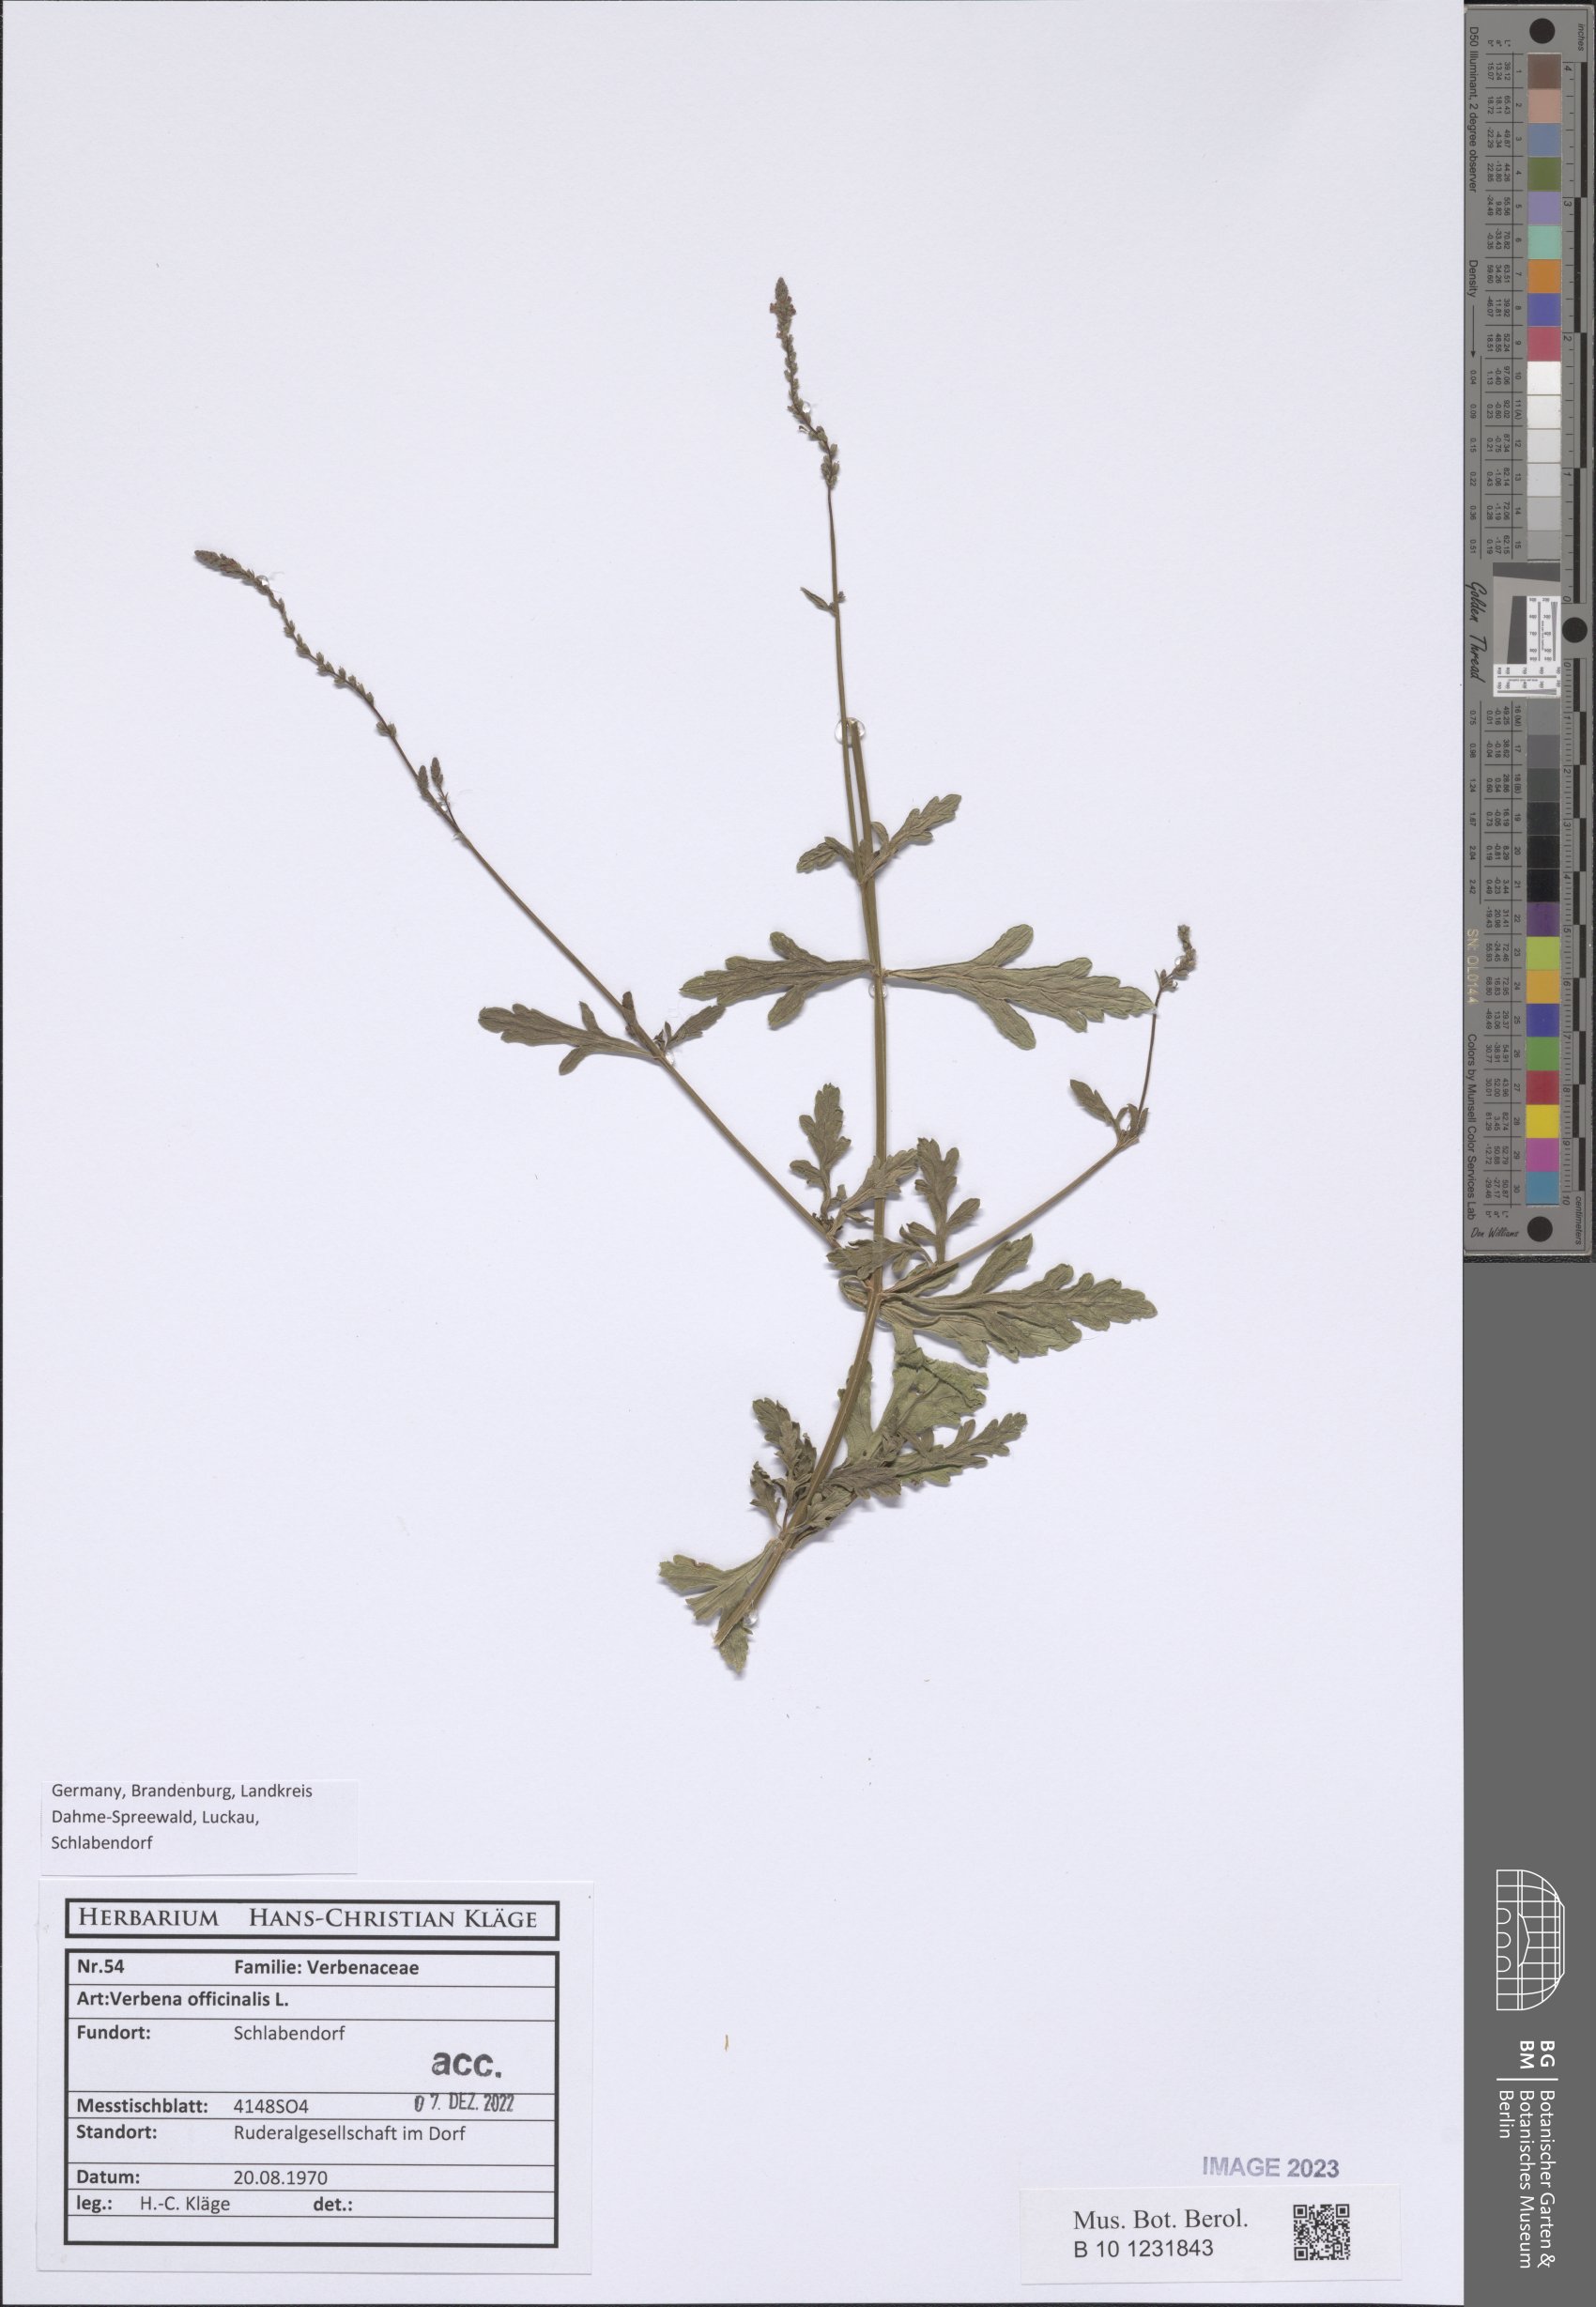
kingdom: Plantae
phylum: Tracheophyta
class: Magnoliopsida
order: Lamiales
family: Verbenaceae
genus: Verbena
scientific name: Verbena officinalis
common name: Vervain
